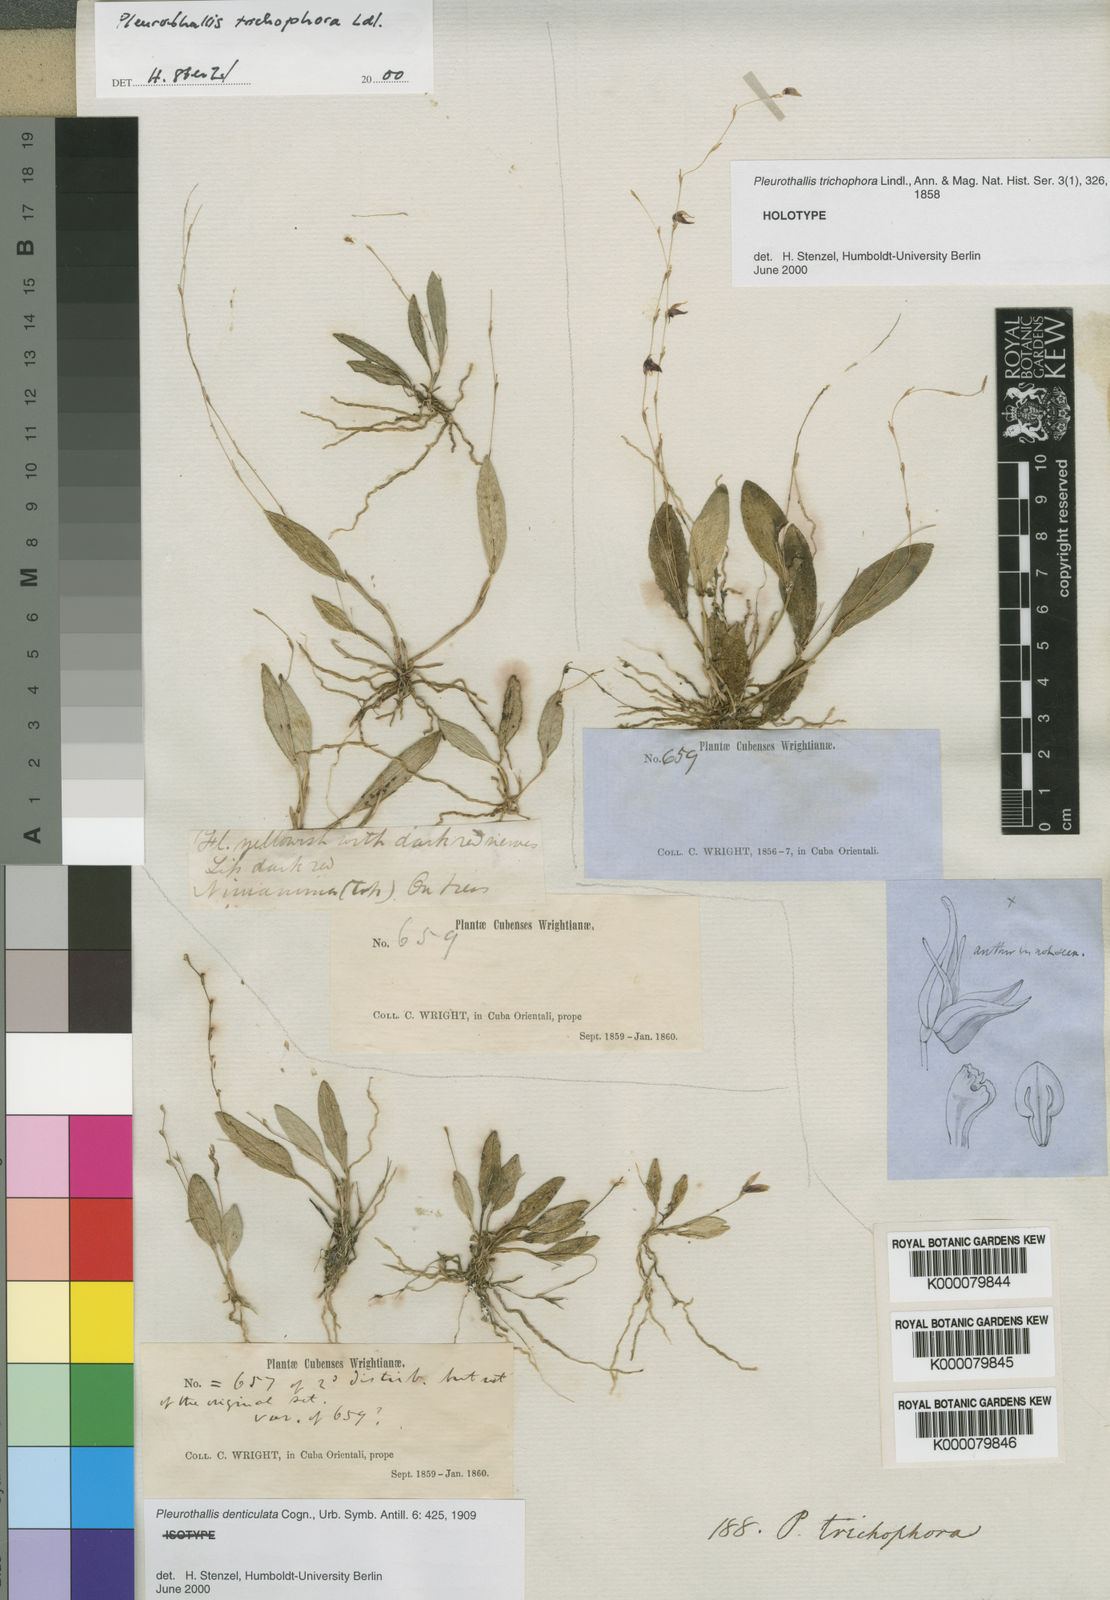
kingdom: Plantae
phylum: Tracheophyta
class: Liliopsida
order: Asparagales
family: Orchidaceae
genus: Acianthera
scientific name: Acianthera trichophora
